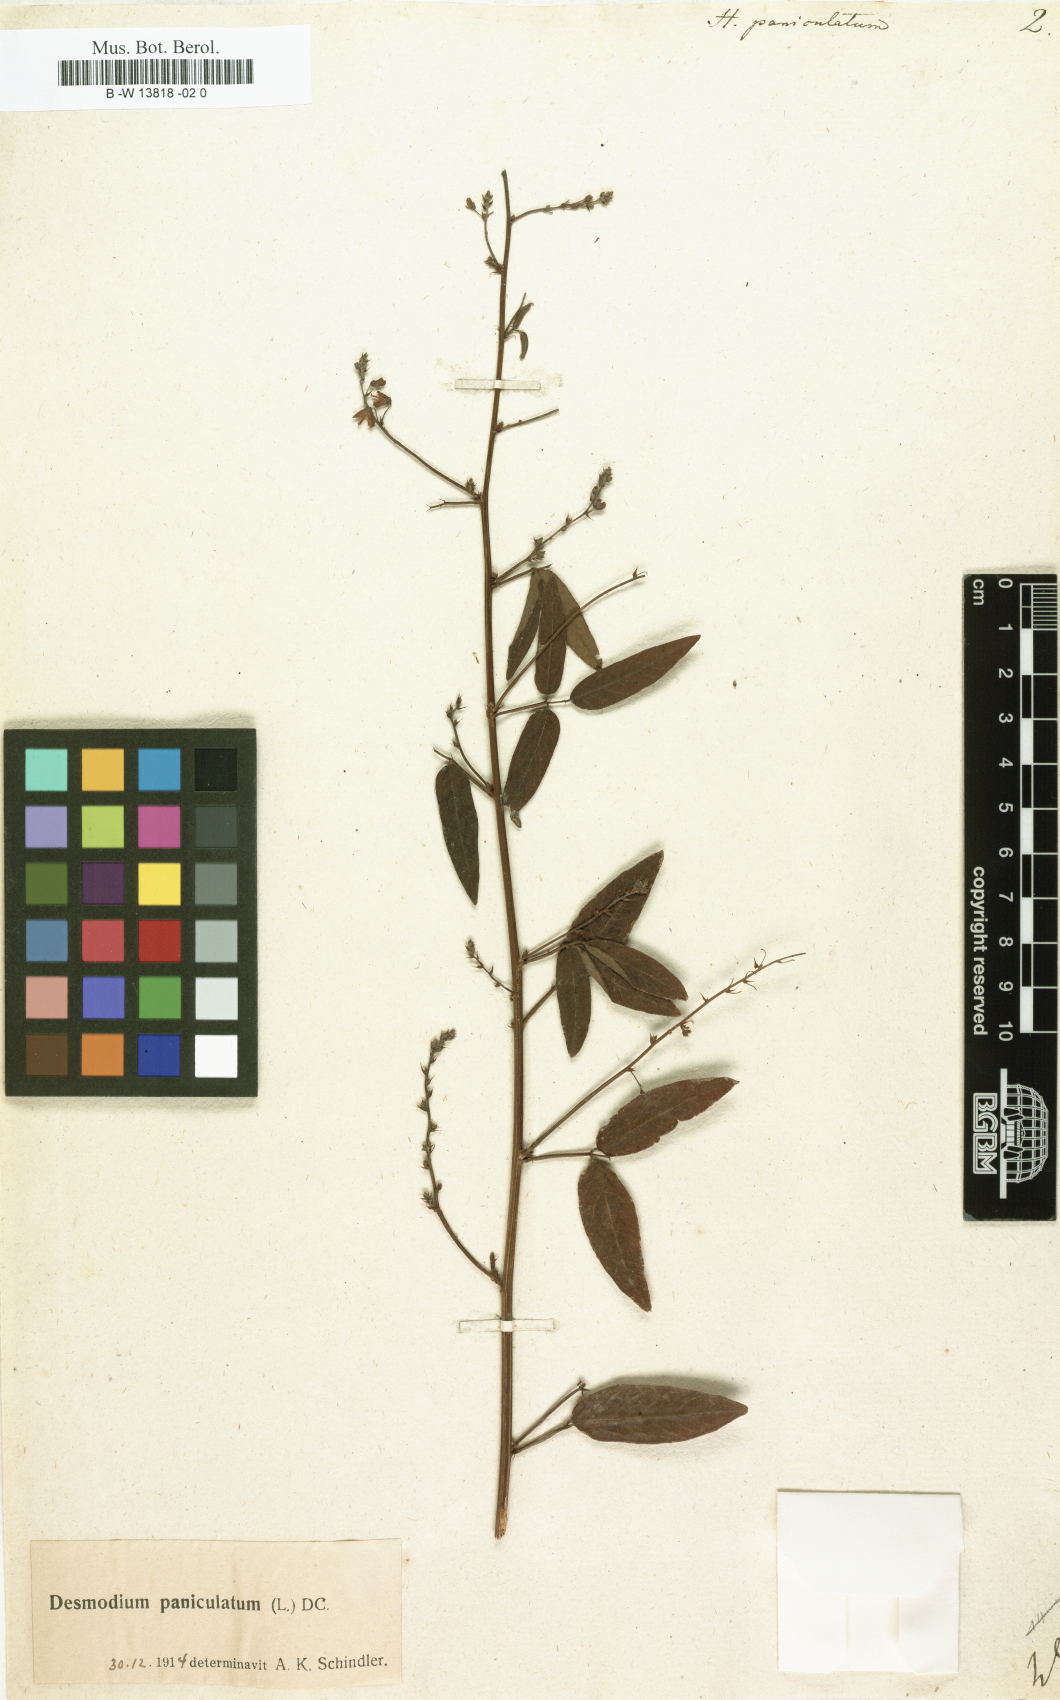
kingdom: Plantae
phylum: Tracheophyta
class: Magnoliopsida
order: Fabales
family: Fabaceae
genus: Desmodium
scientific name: Desmodium paniculatum
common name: Panicled tick-clover
